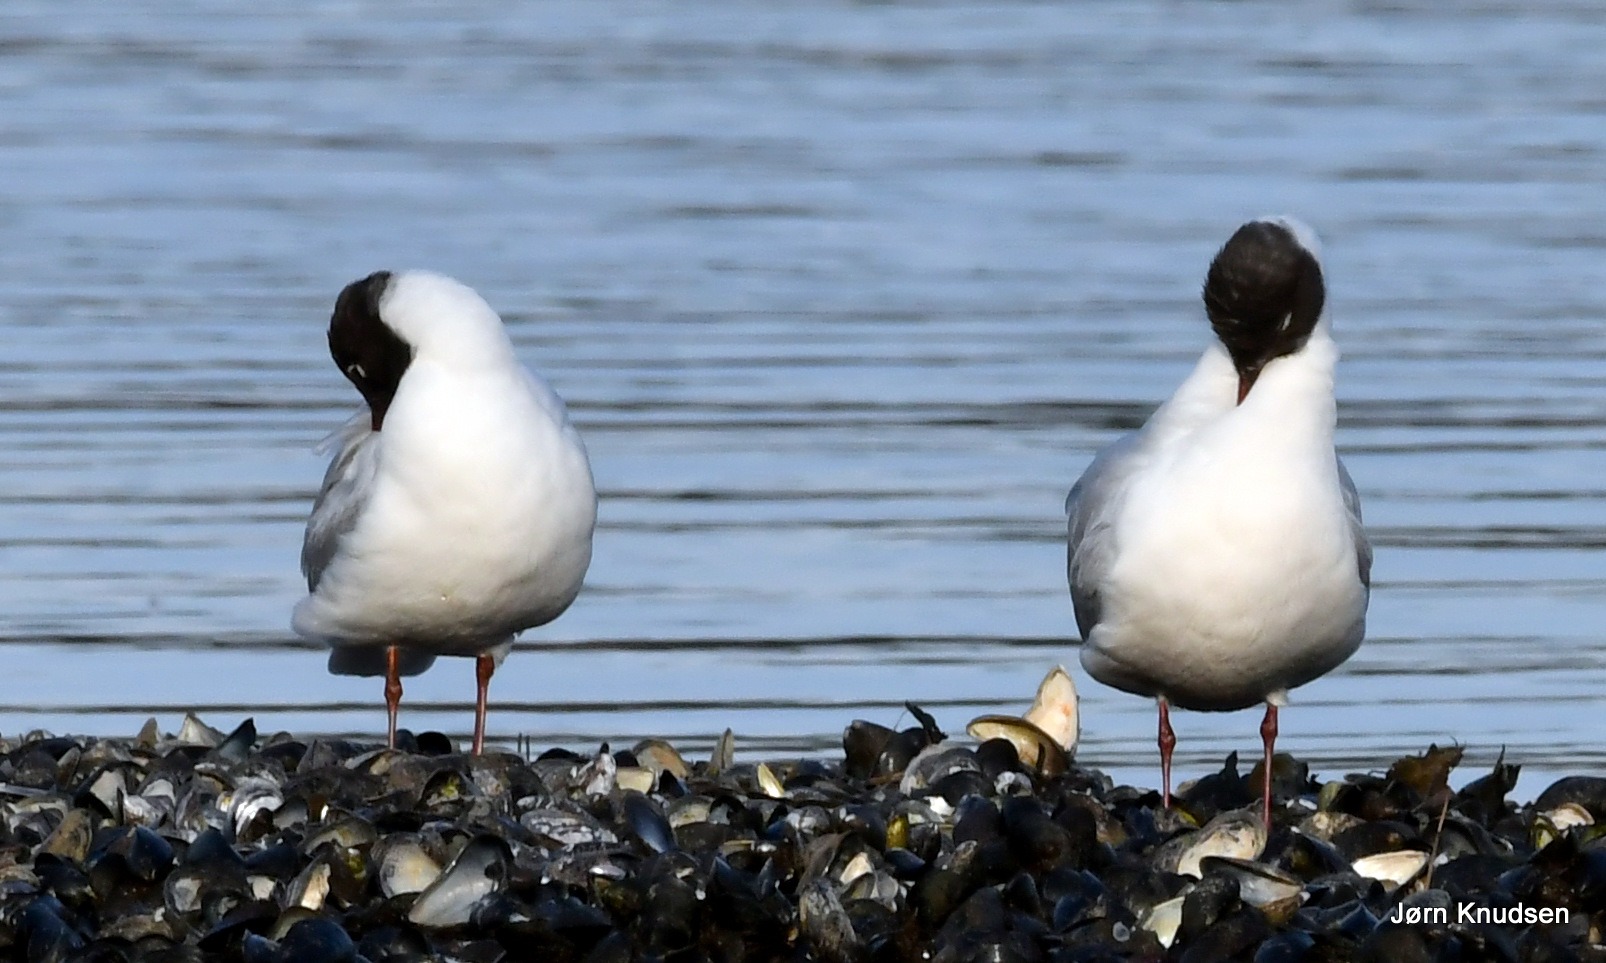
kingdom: Animalia
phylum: Chordata
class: Aves
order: Charadriiformes
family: Laridae
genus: Chroicocephalus
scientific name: Chroicocephalus ridibundus
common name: Hættemåge
